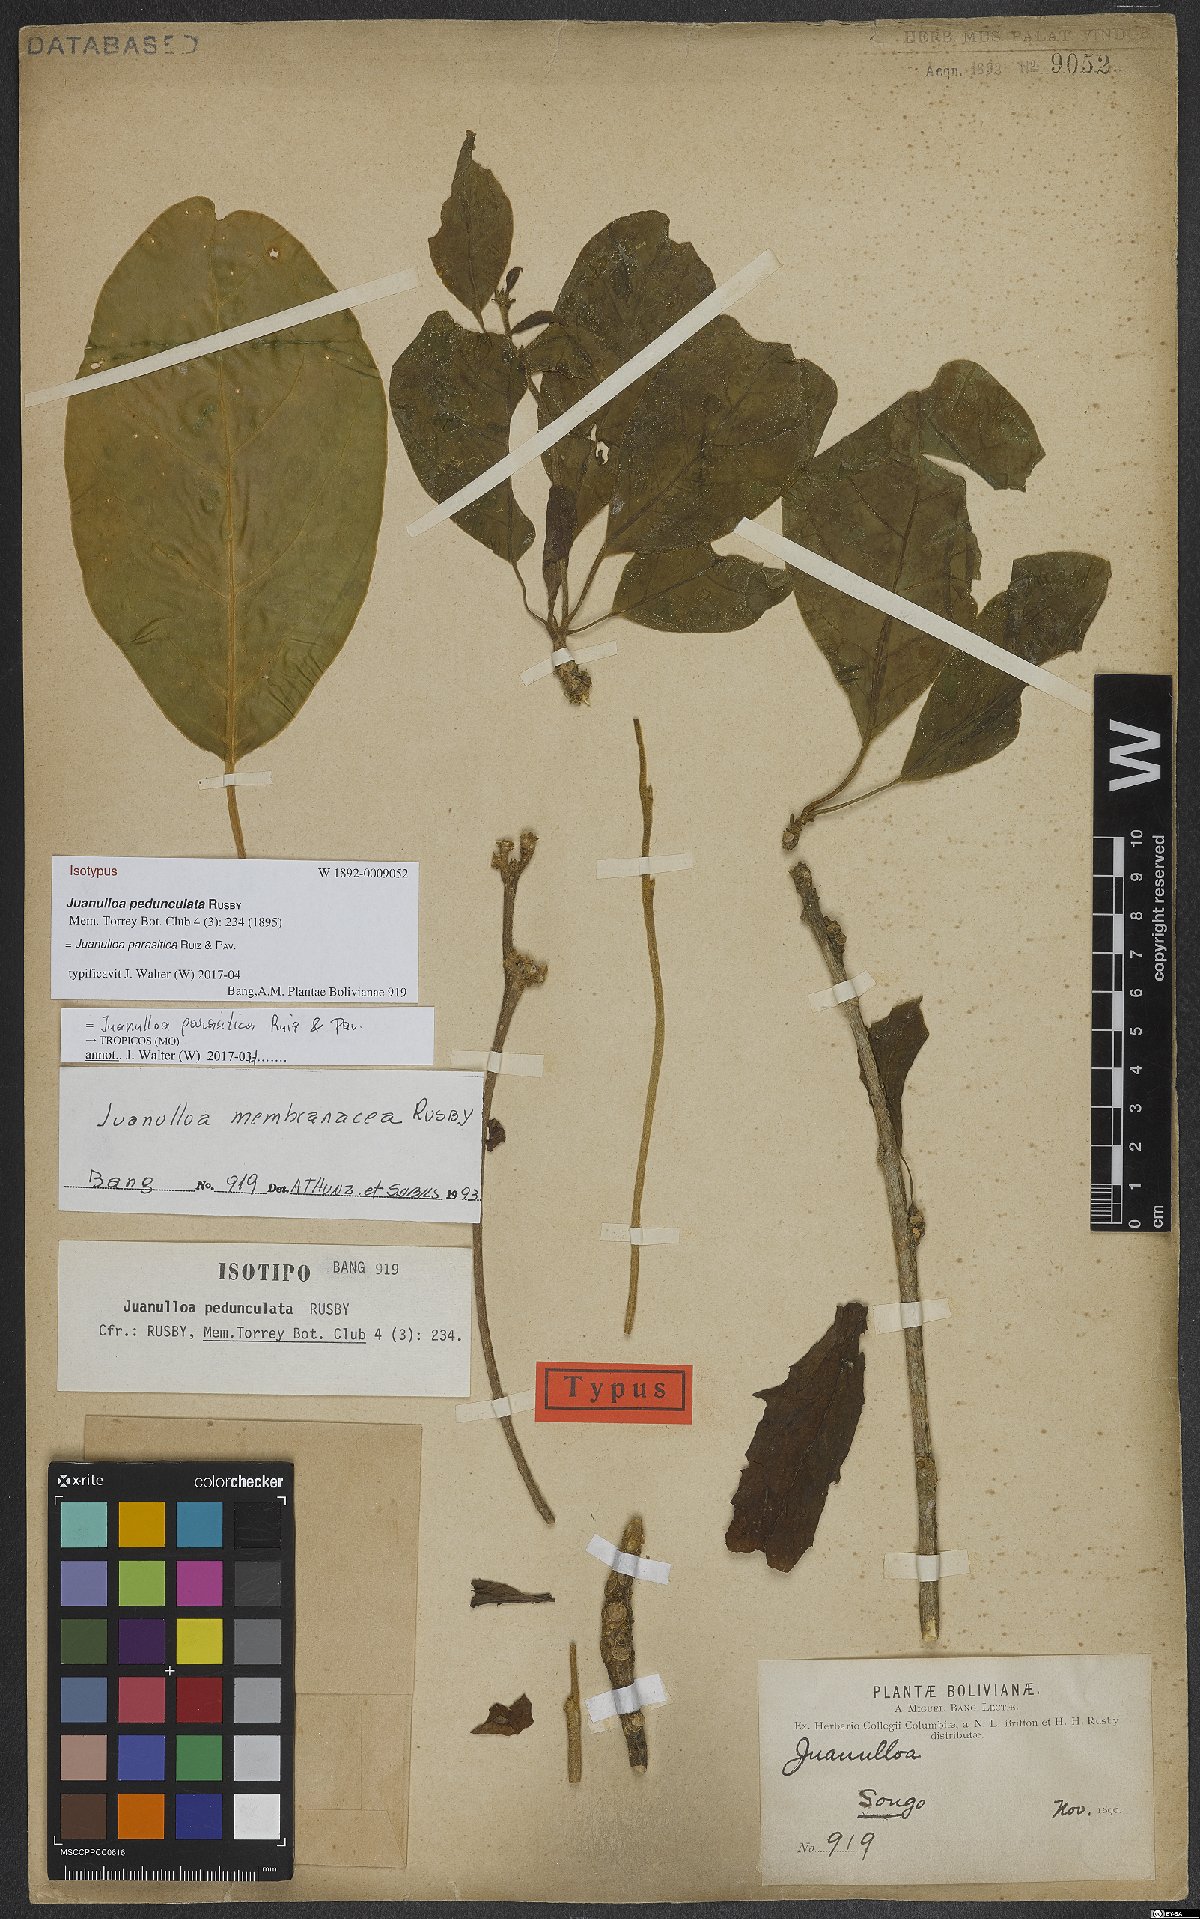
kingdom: Plantae
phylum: Tracheophyta
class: Magnoliopsida
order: Solanales
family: Solanaceae
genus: Juanulloa
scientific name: Juanulloa parasitica
